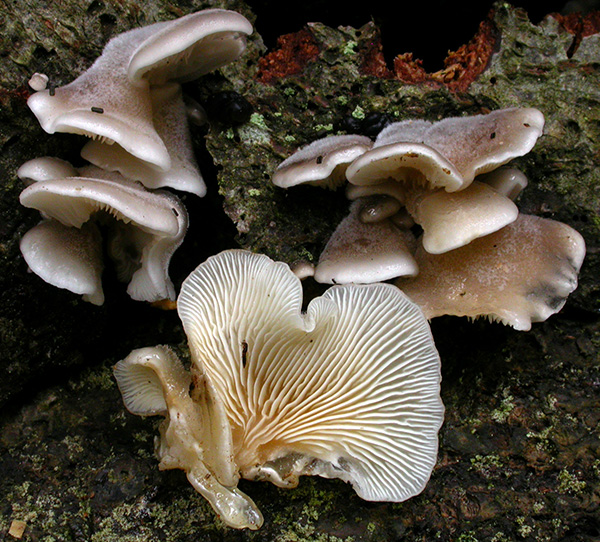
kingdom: Fungi
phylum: Basidiomycota
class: Agaricomycetes
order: Agaricales
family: Pleurotaceae
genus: Hohenbuehelia
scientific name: Hohenbuehelia mastrucata
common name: skællet filthat
